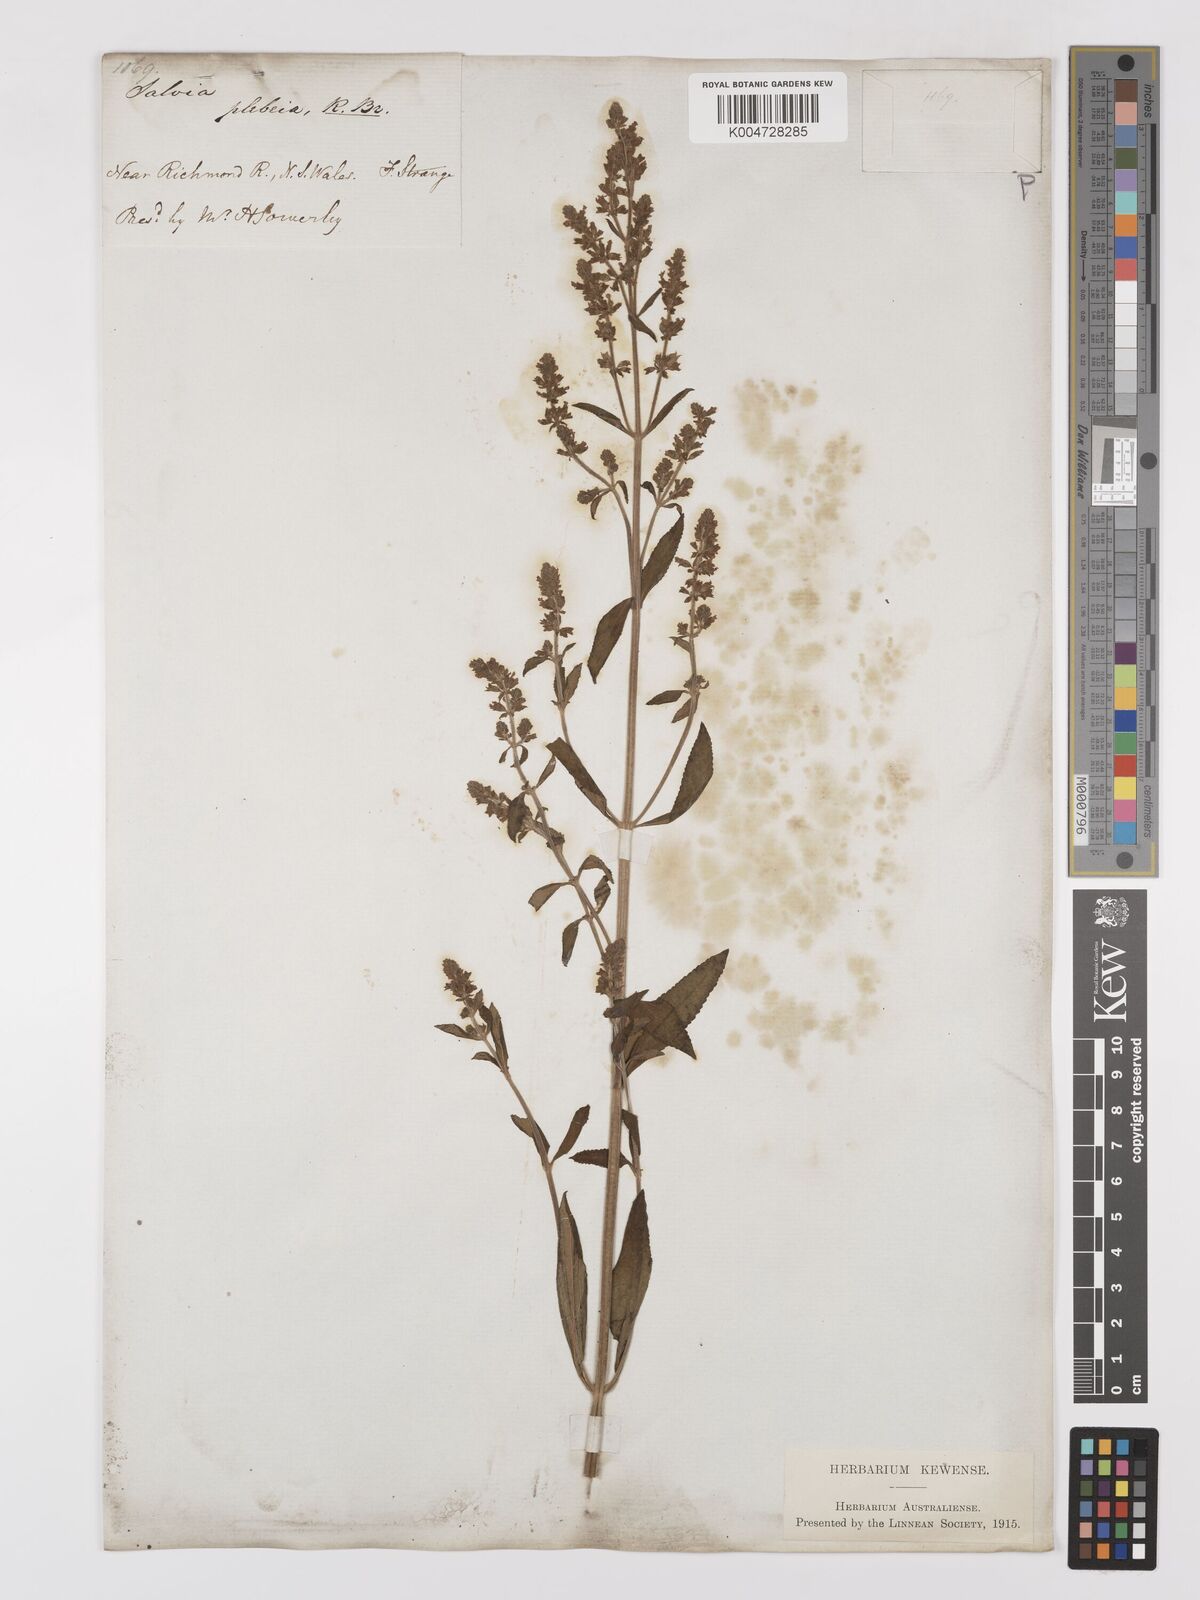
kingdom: Plantae
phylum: Tracheophyta
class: Magnoliopsida
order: Lamiales
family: Lamiaceae
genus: Salvia
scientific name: Salvia plebeia
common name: Australian sage
